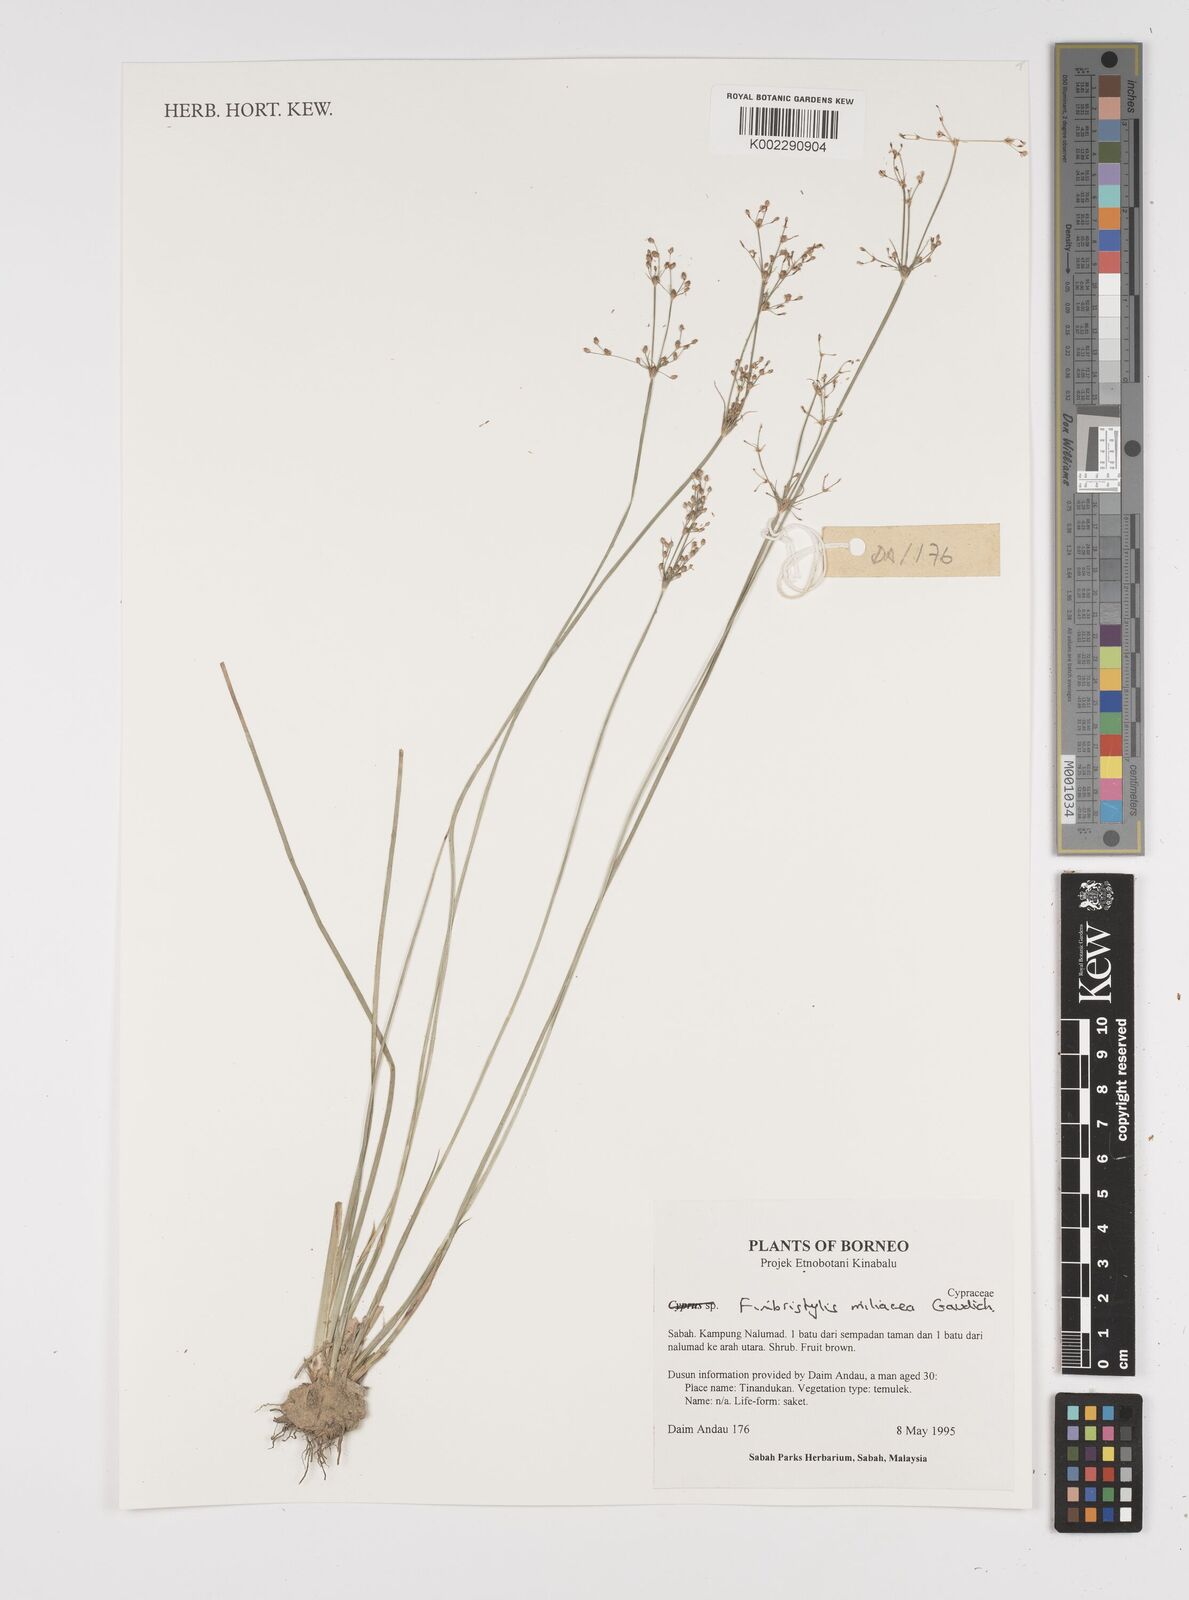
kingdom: Plantae
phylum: Tracheophyta
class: Liliopsida
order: Poales
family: Cyperaceae
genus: Fimbristylis
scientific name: Fimbristylis quinquangularis
